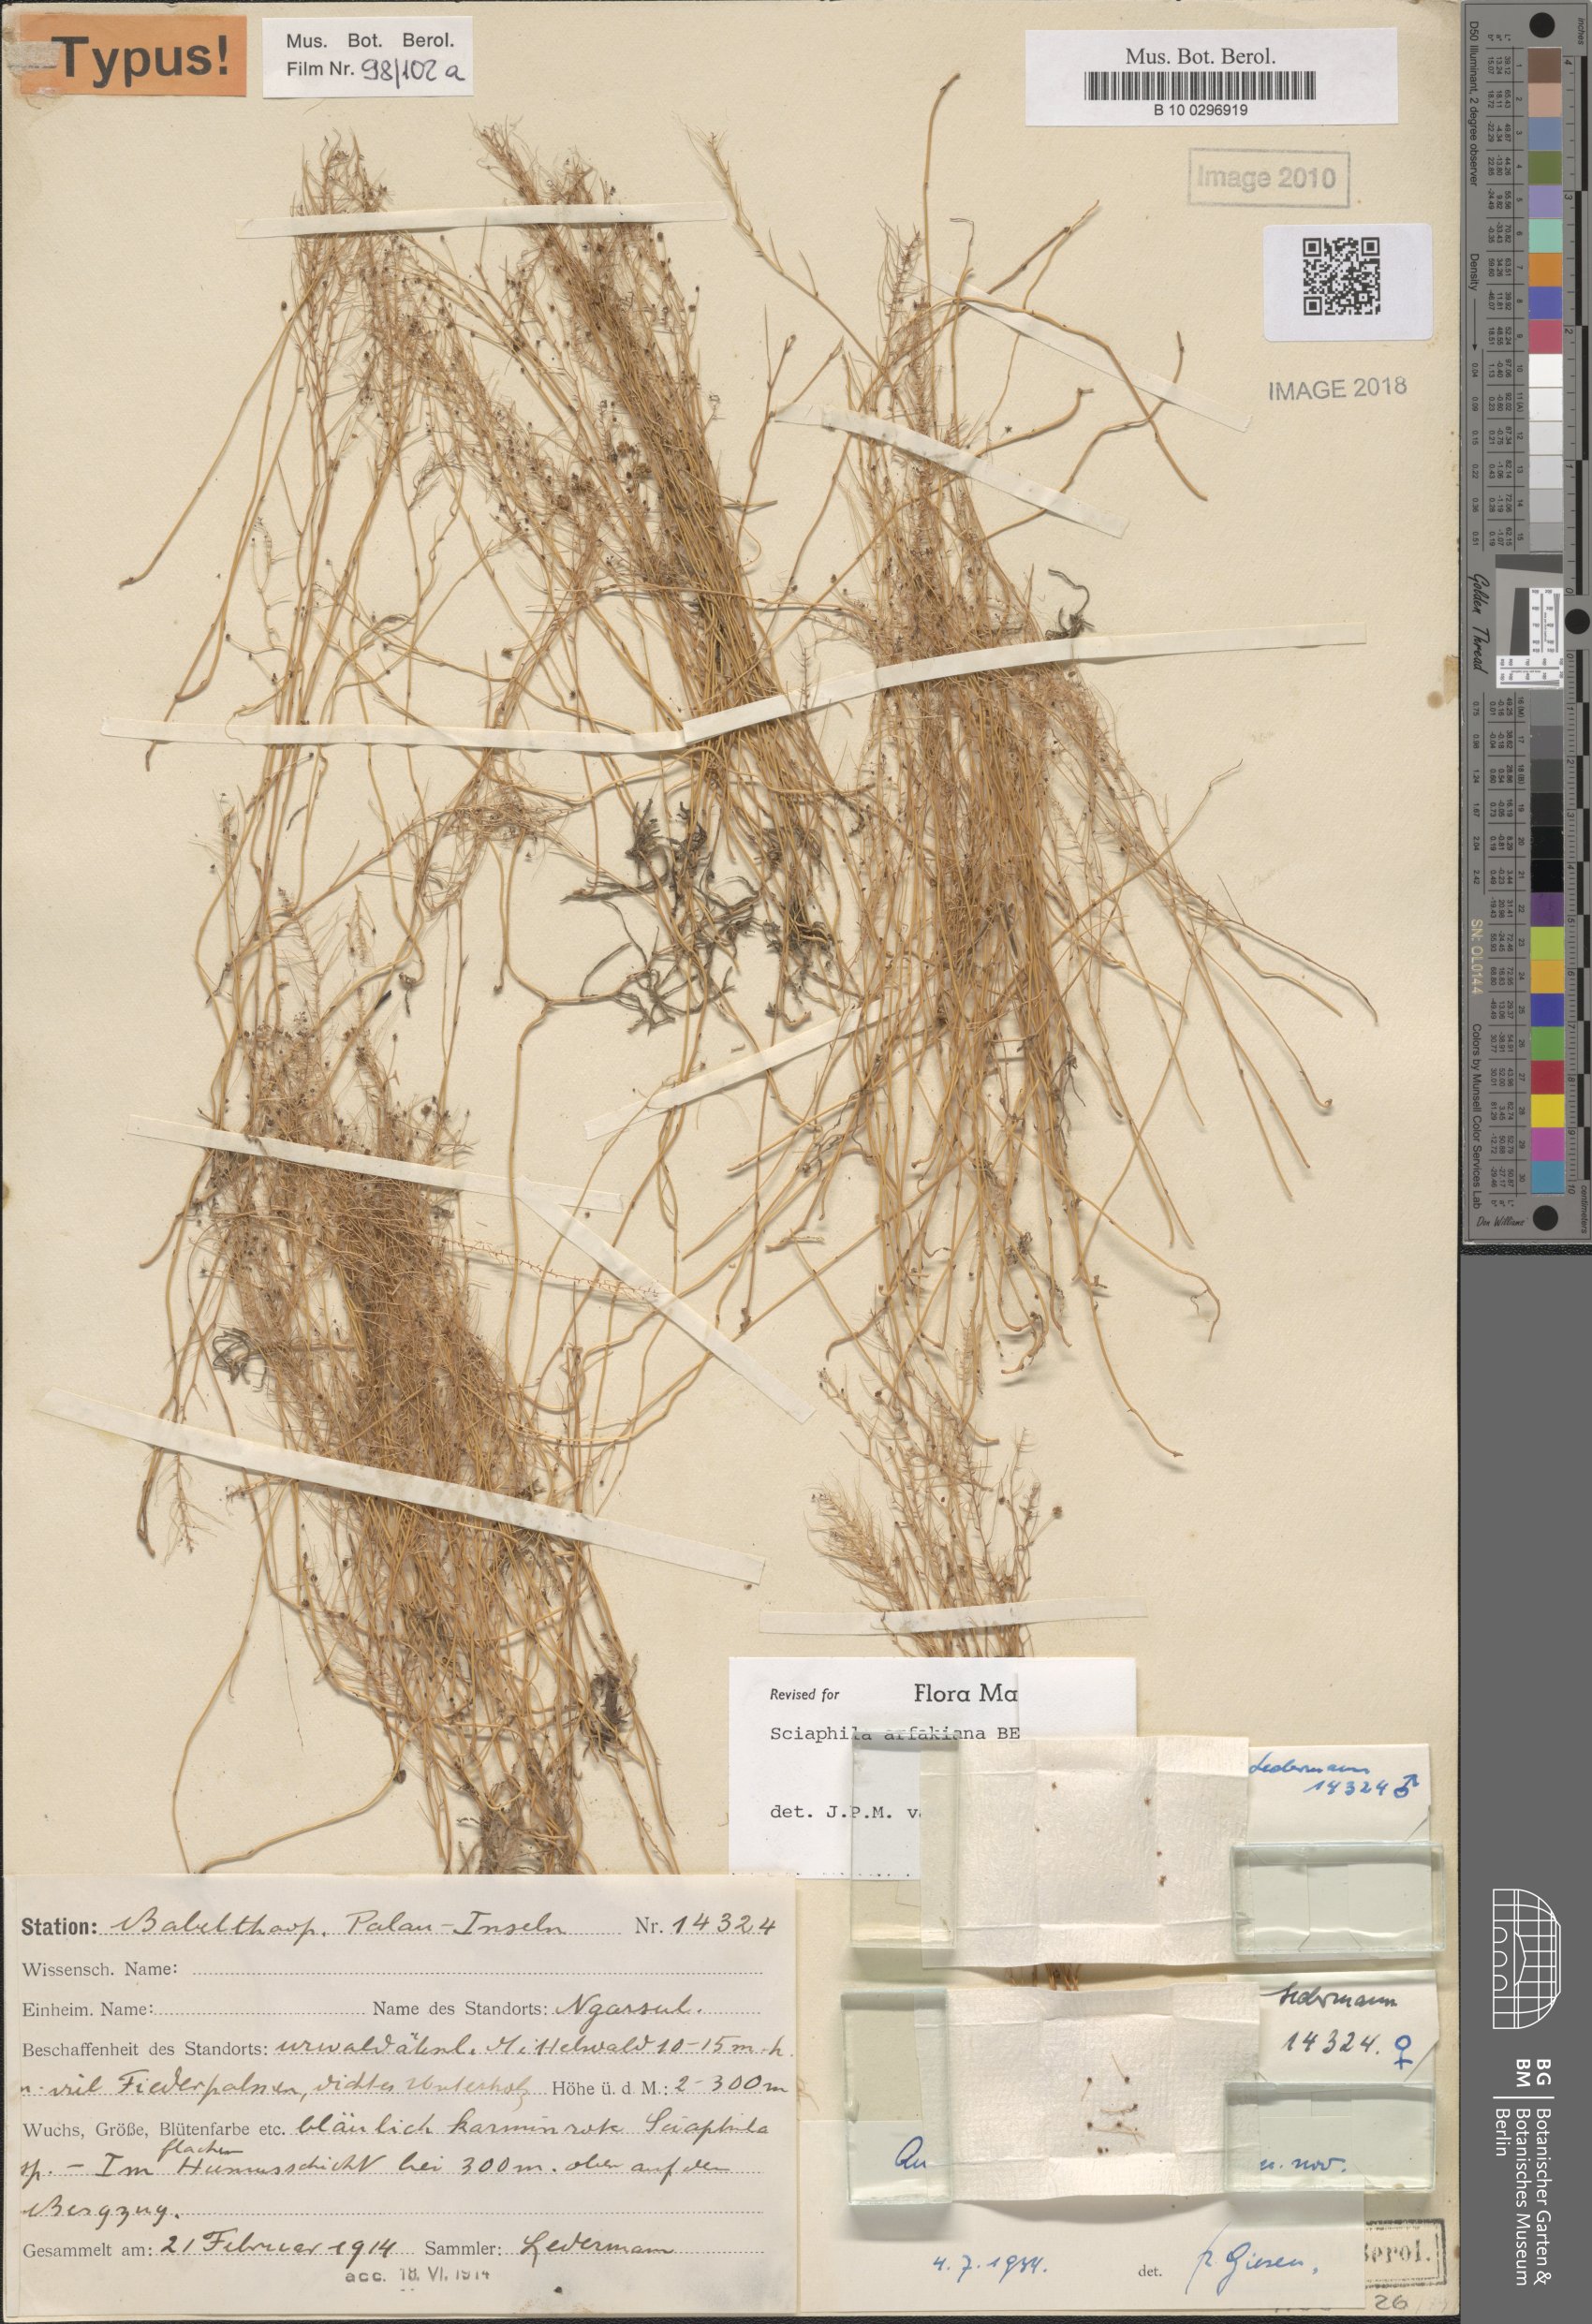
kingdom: Plantae
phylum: Tracheophyta
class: Liliopsida
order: Pandanales
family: Triuridaceae
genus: Sciaphila
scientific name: Sciaphila arfakiana
